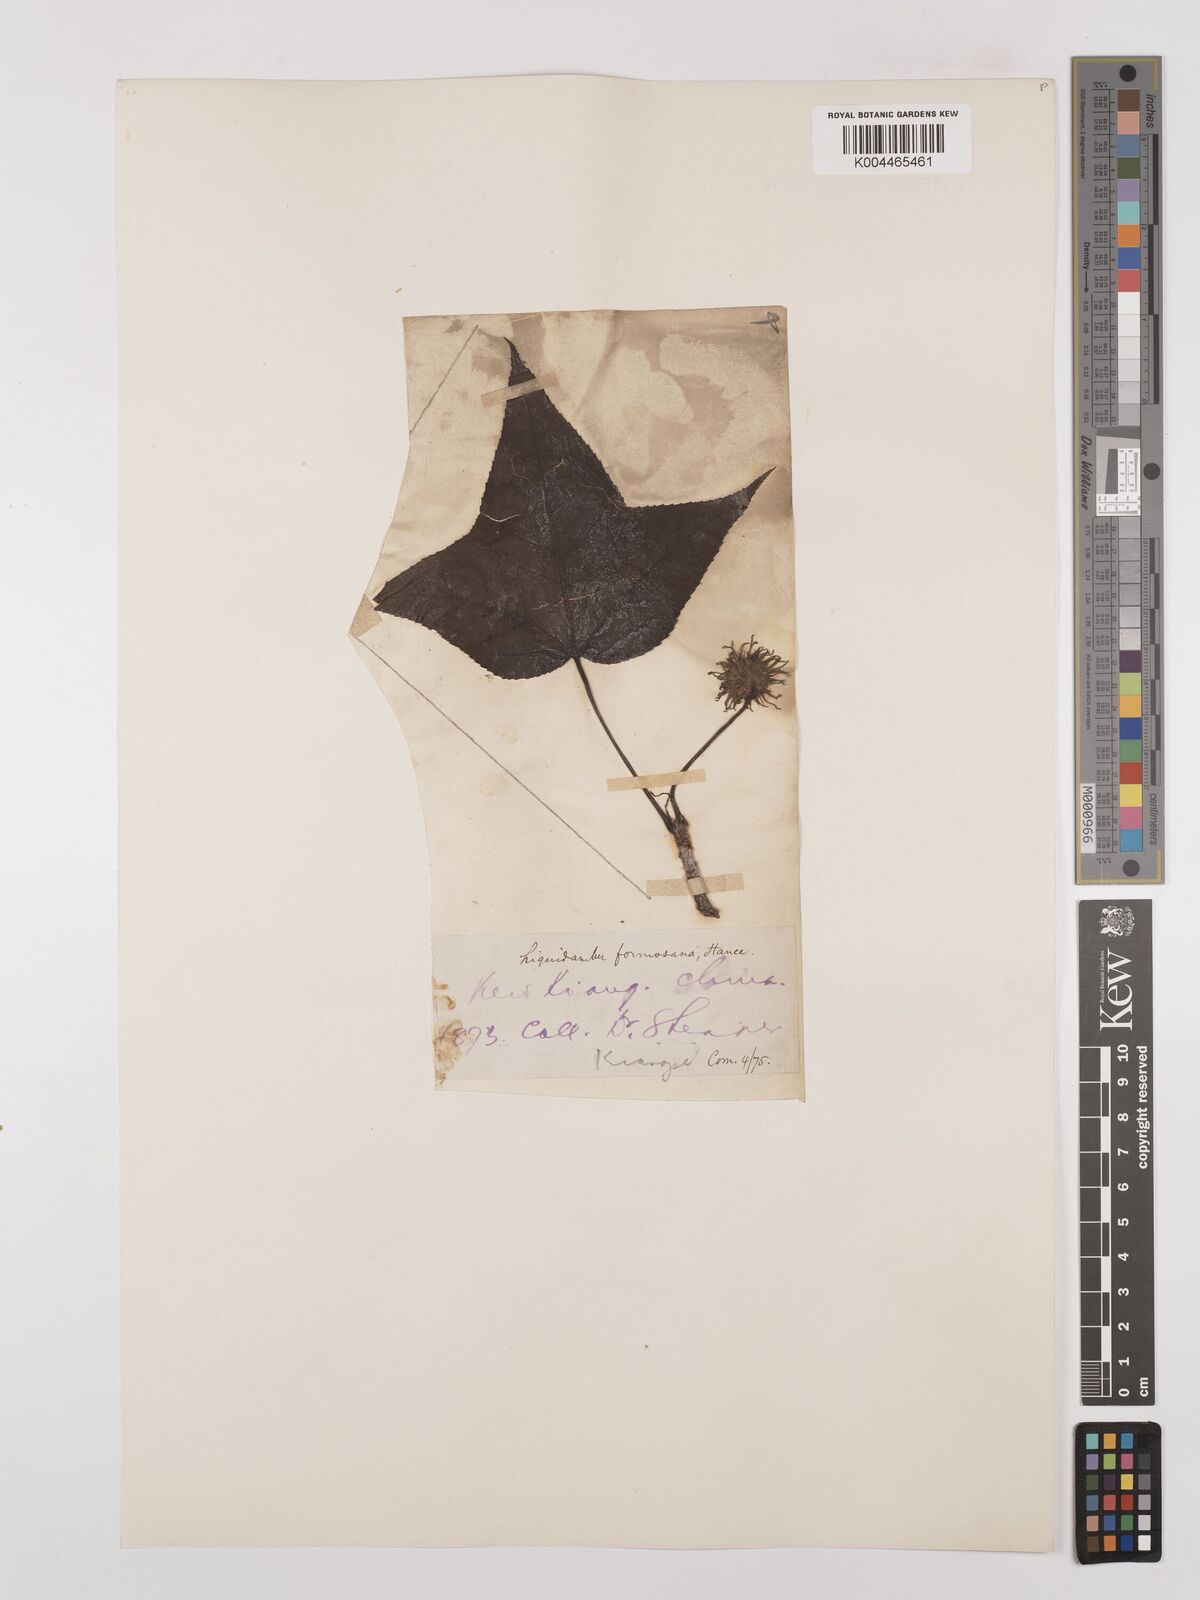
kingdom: Plantae
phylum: Tracheophyta
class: Magnoliopsida
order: Saxifragales
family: Altingiaceae
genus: Liquidambar
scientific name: Liquidambar formosana
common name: Chinese sweet gum
